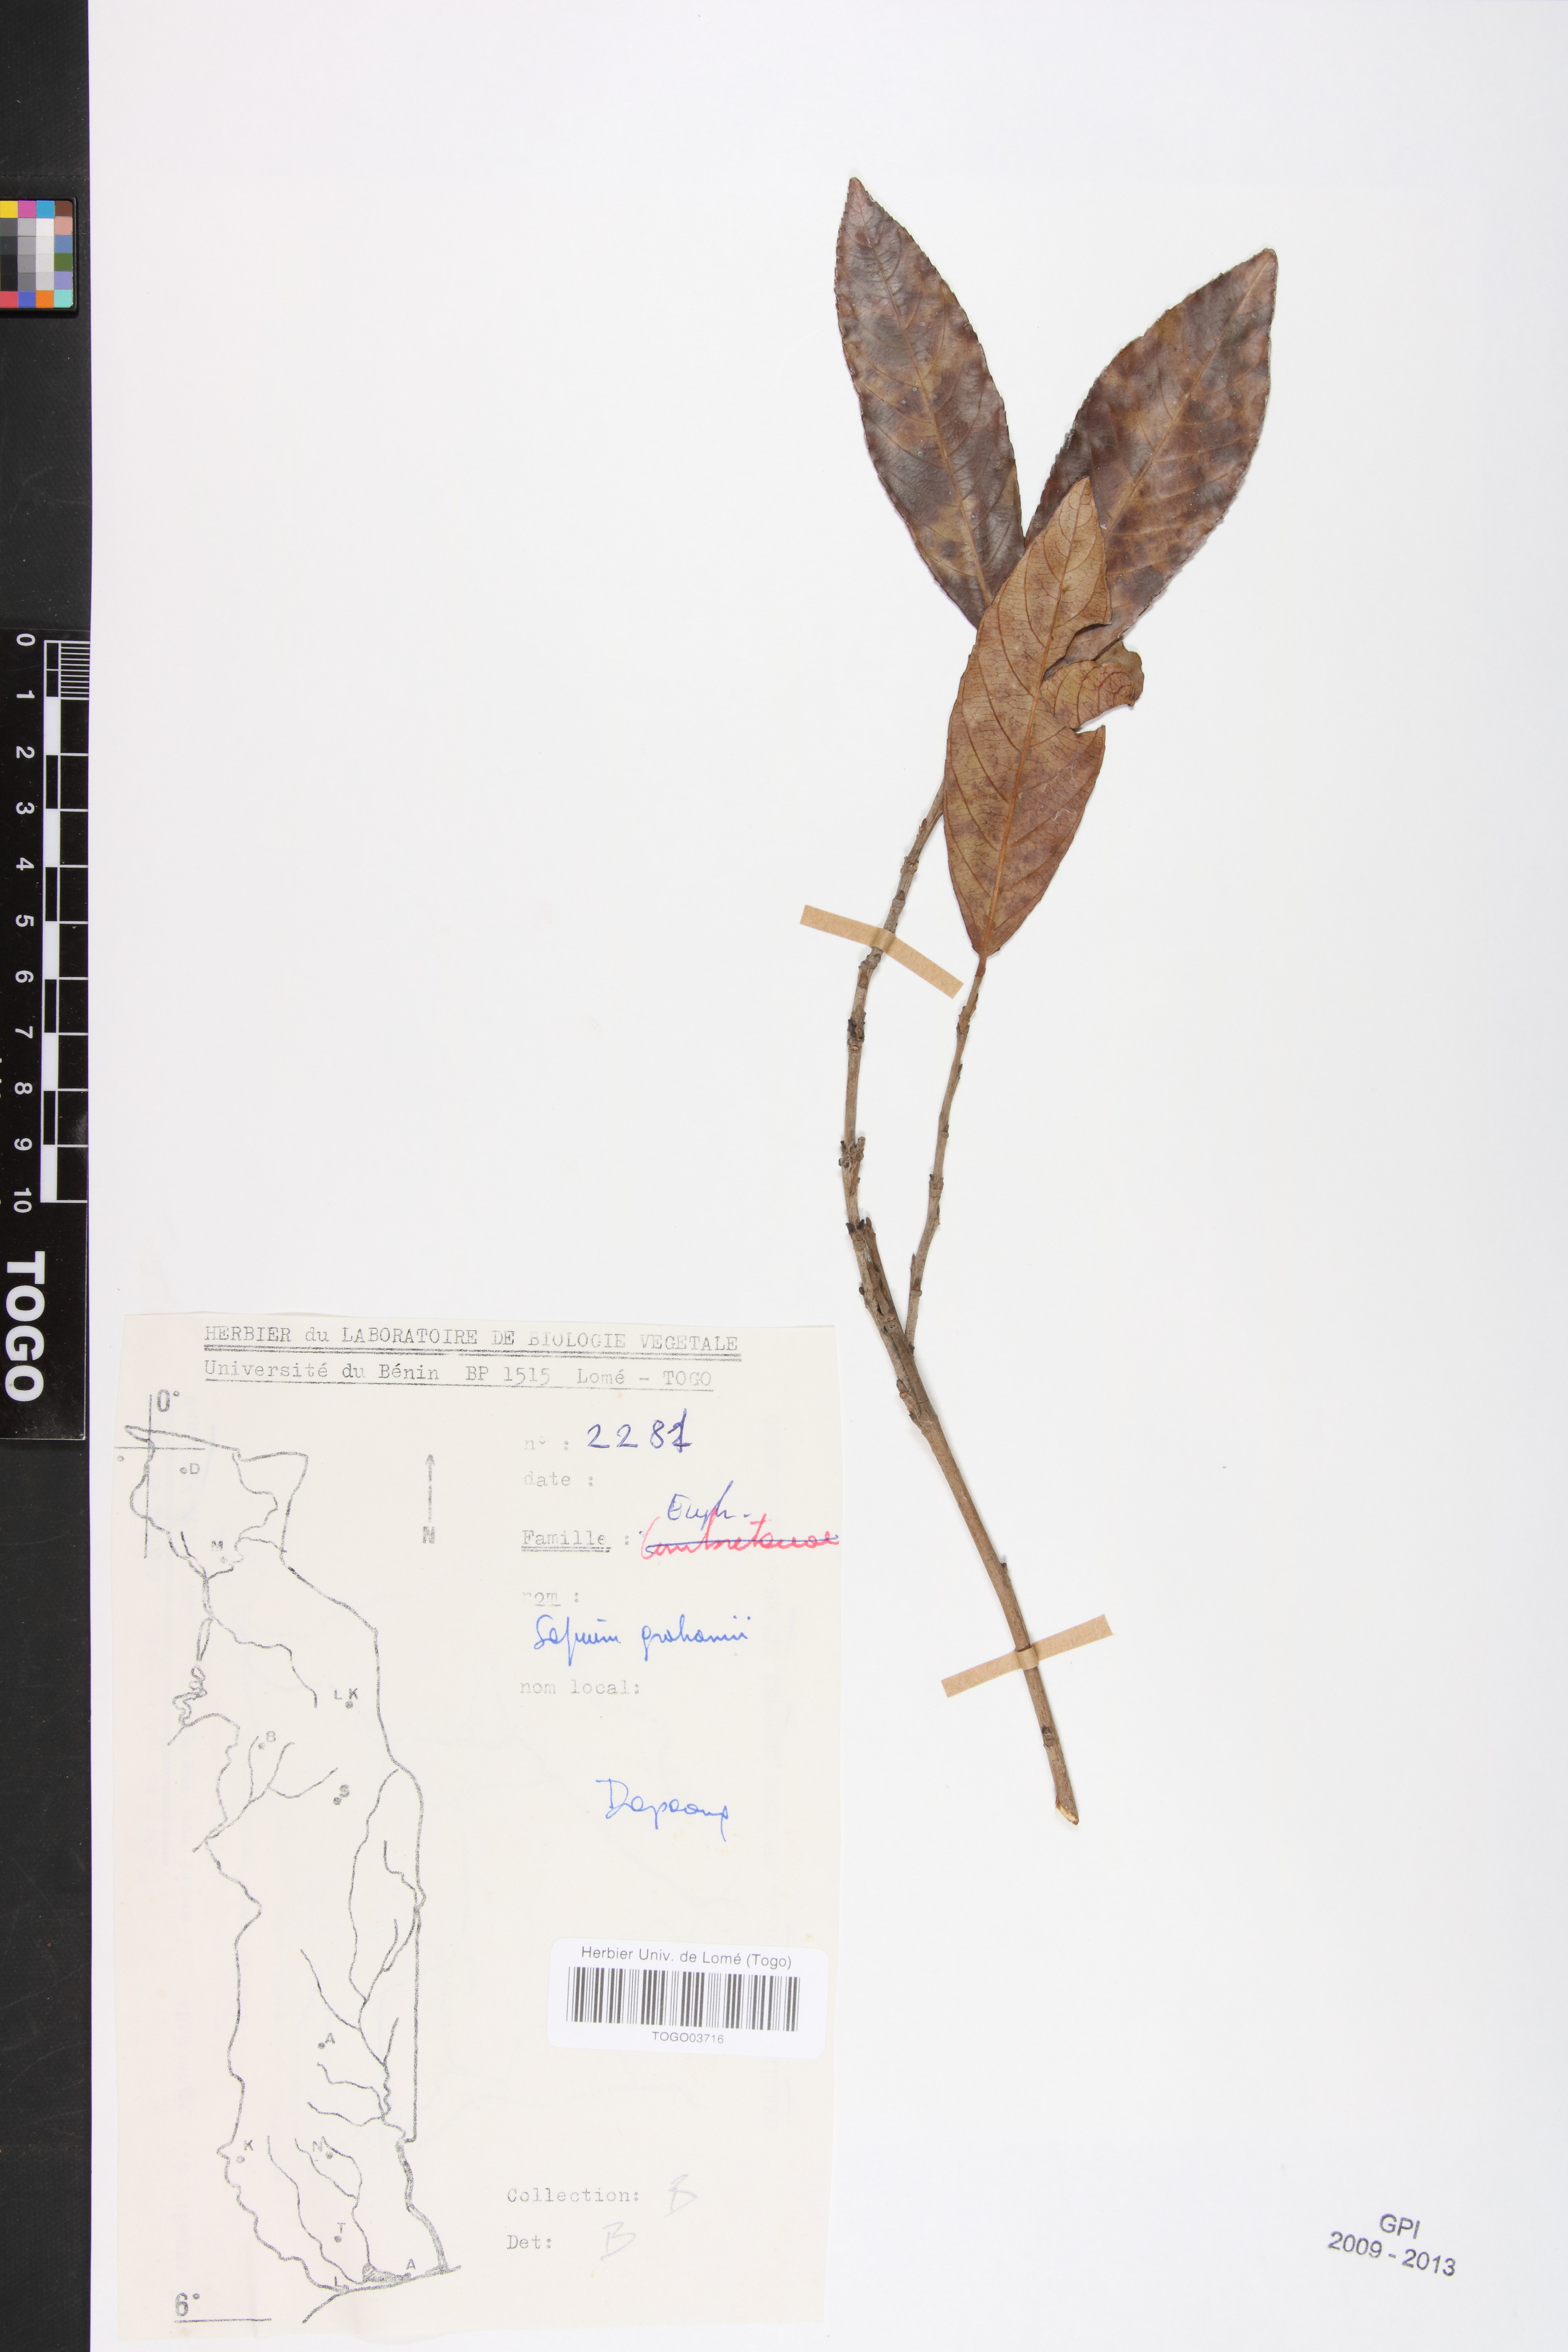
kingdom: Plantae
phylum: Tracheophyta
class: Magnoliopsida
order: Malpighiales
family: Euphorbiaceae
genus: Excoecaria
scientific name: Excoecaria grahamii
